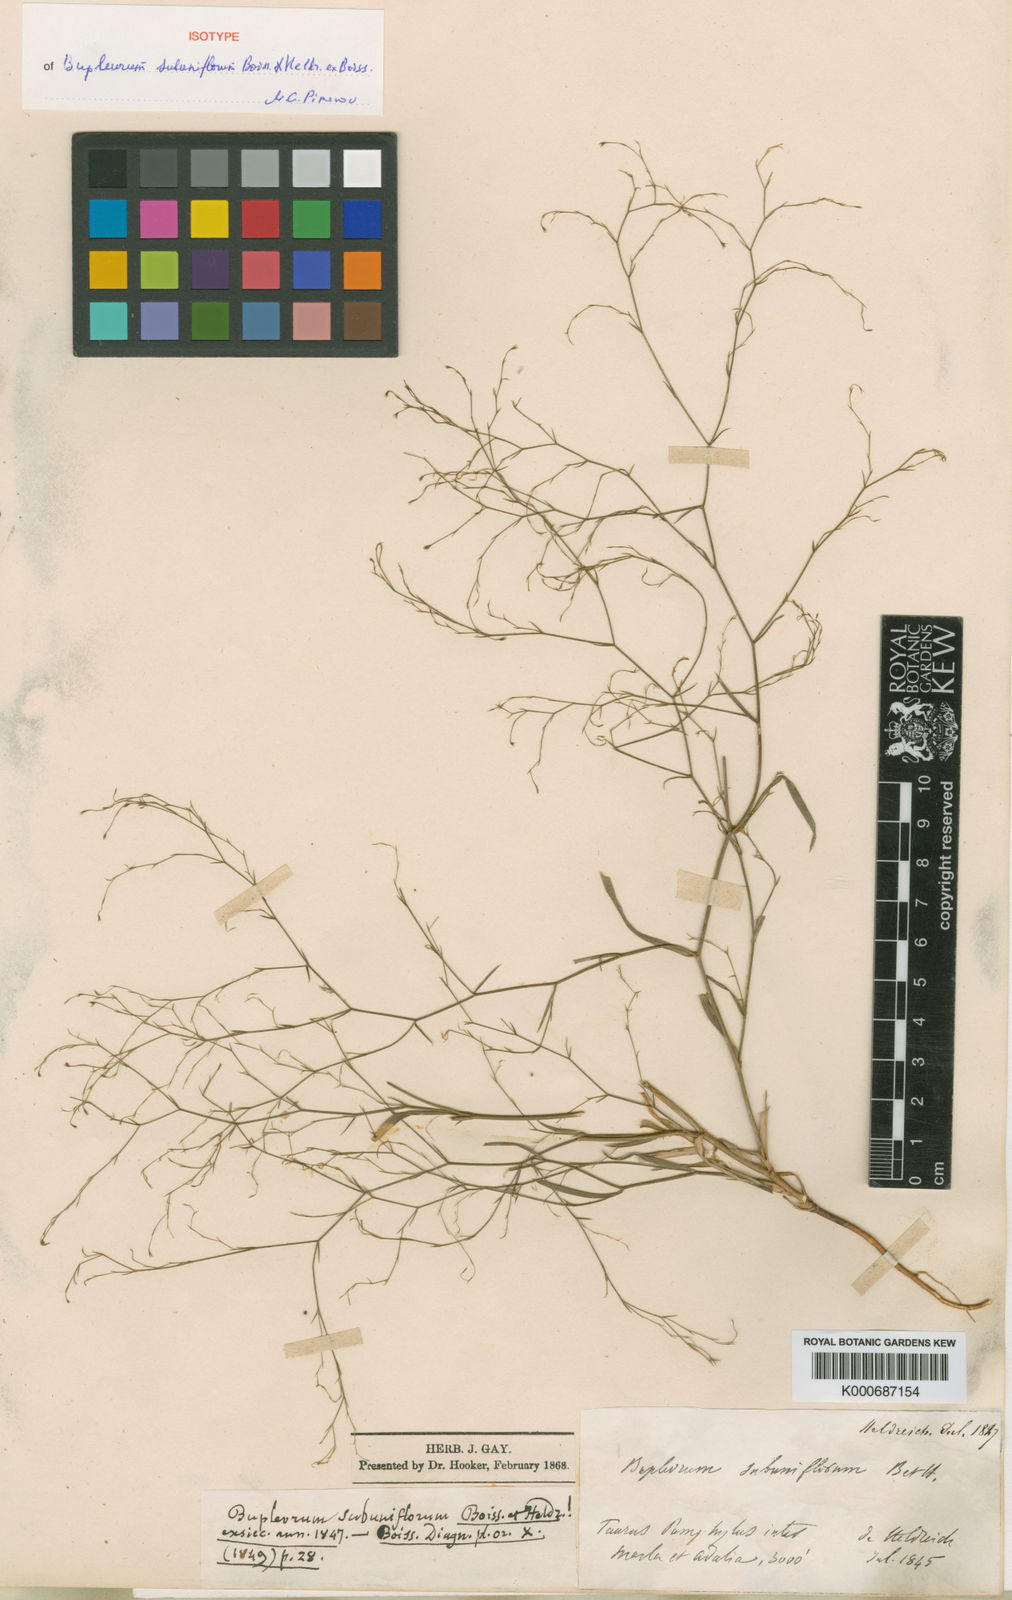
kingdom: Plantae
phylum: Tracheophyta
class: Magnoliopsida
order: Apiales
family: Apiaceae
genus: Bupleurum
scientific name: Bupleurum subuniflorum
